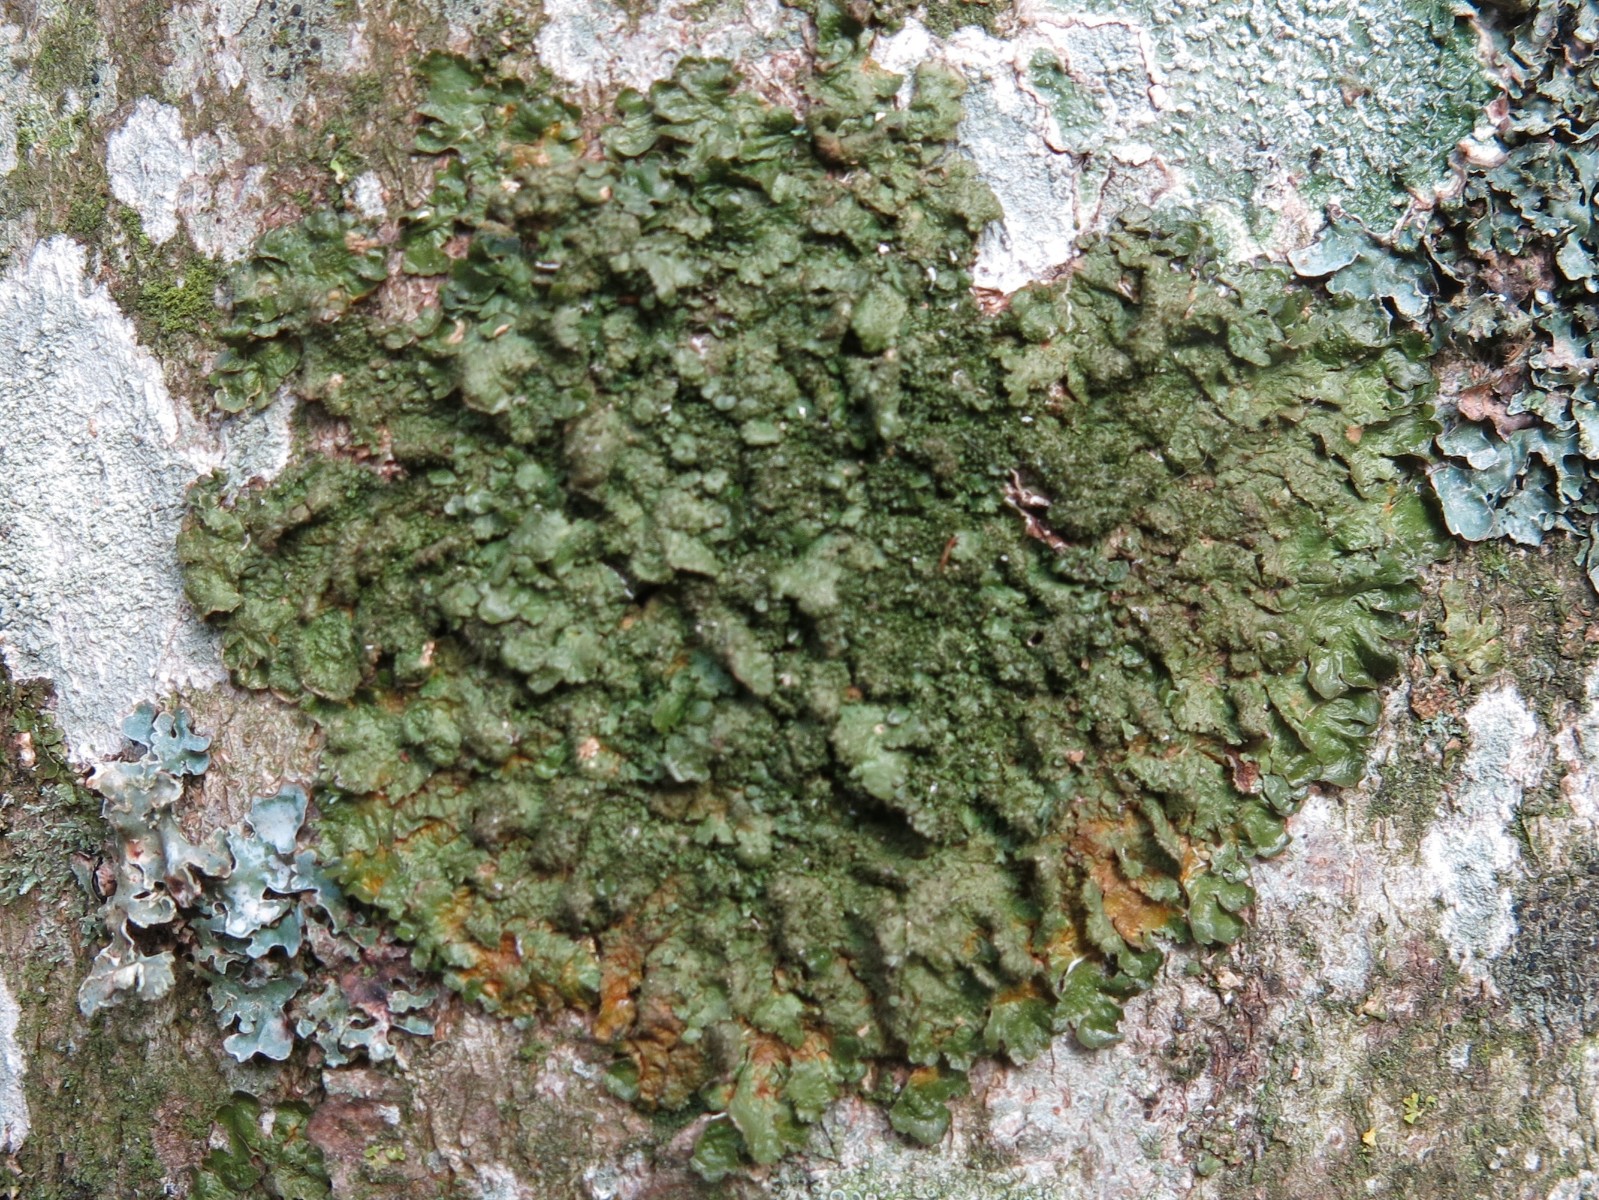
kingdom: Fungi
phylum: Ascomycota
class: Lecanoromycetes
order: Lecanorales
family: Parmeliaceae
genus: Melanelixia
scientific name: Melanelixia glabratula
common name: glinsende skållav
